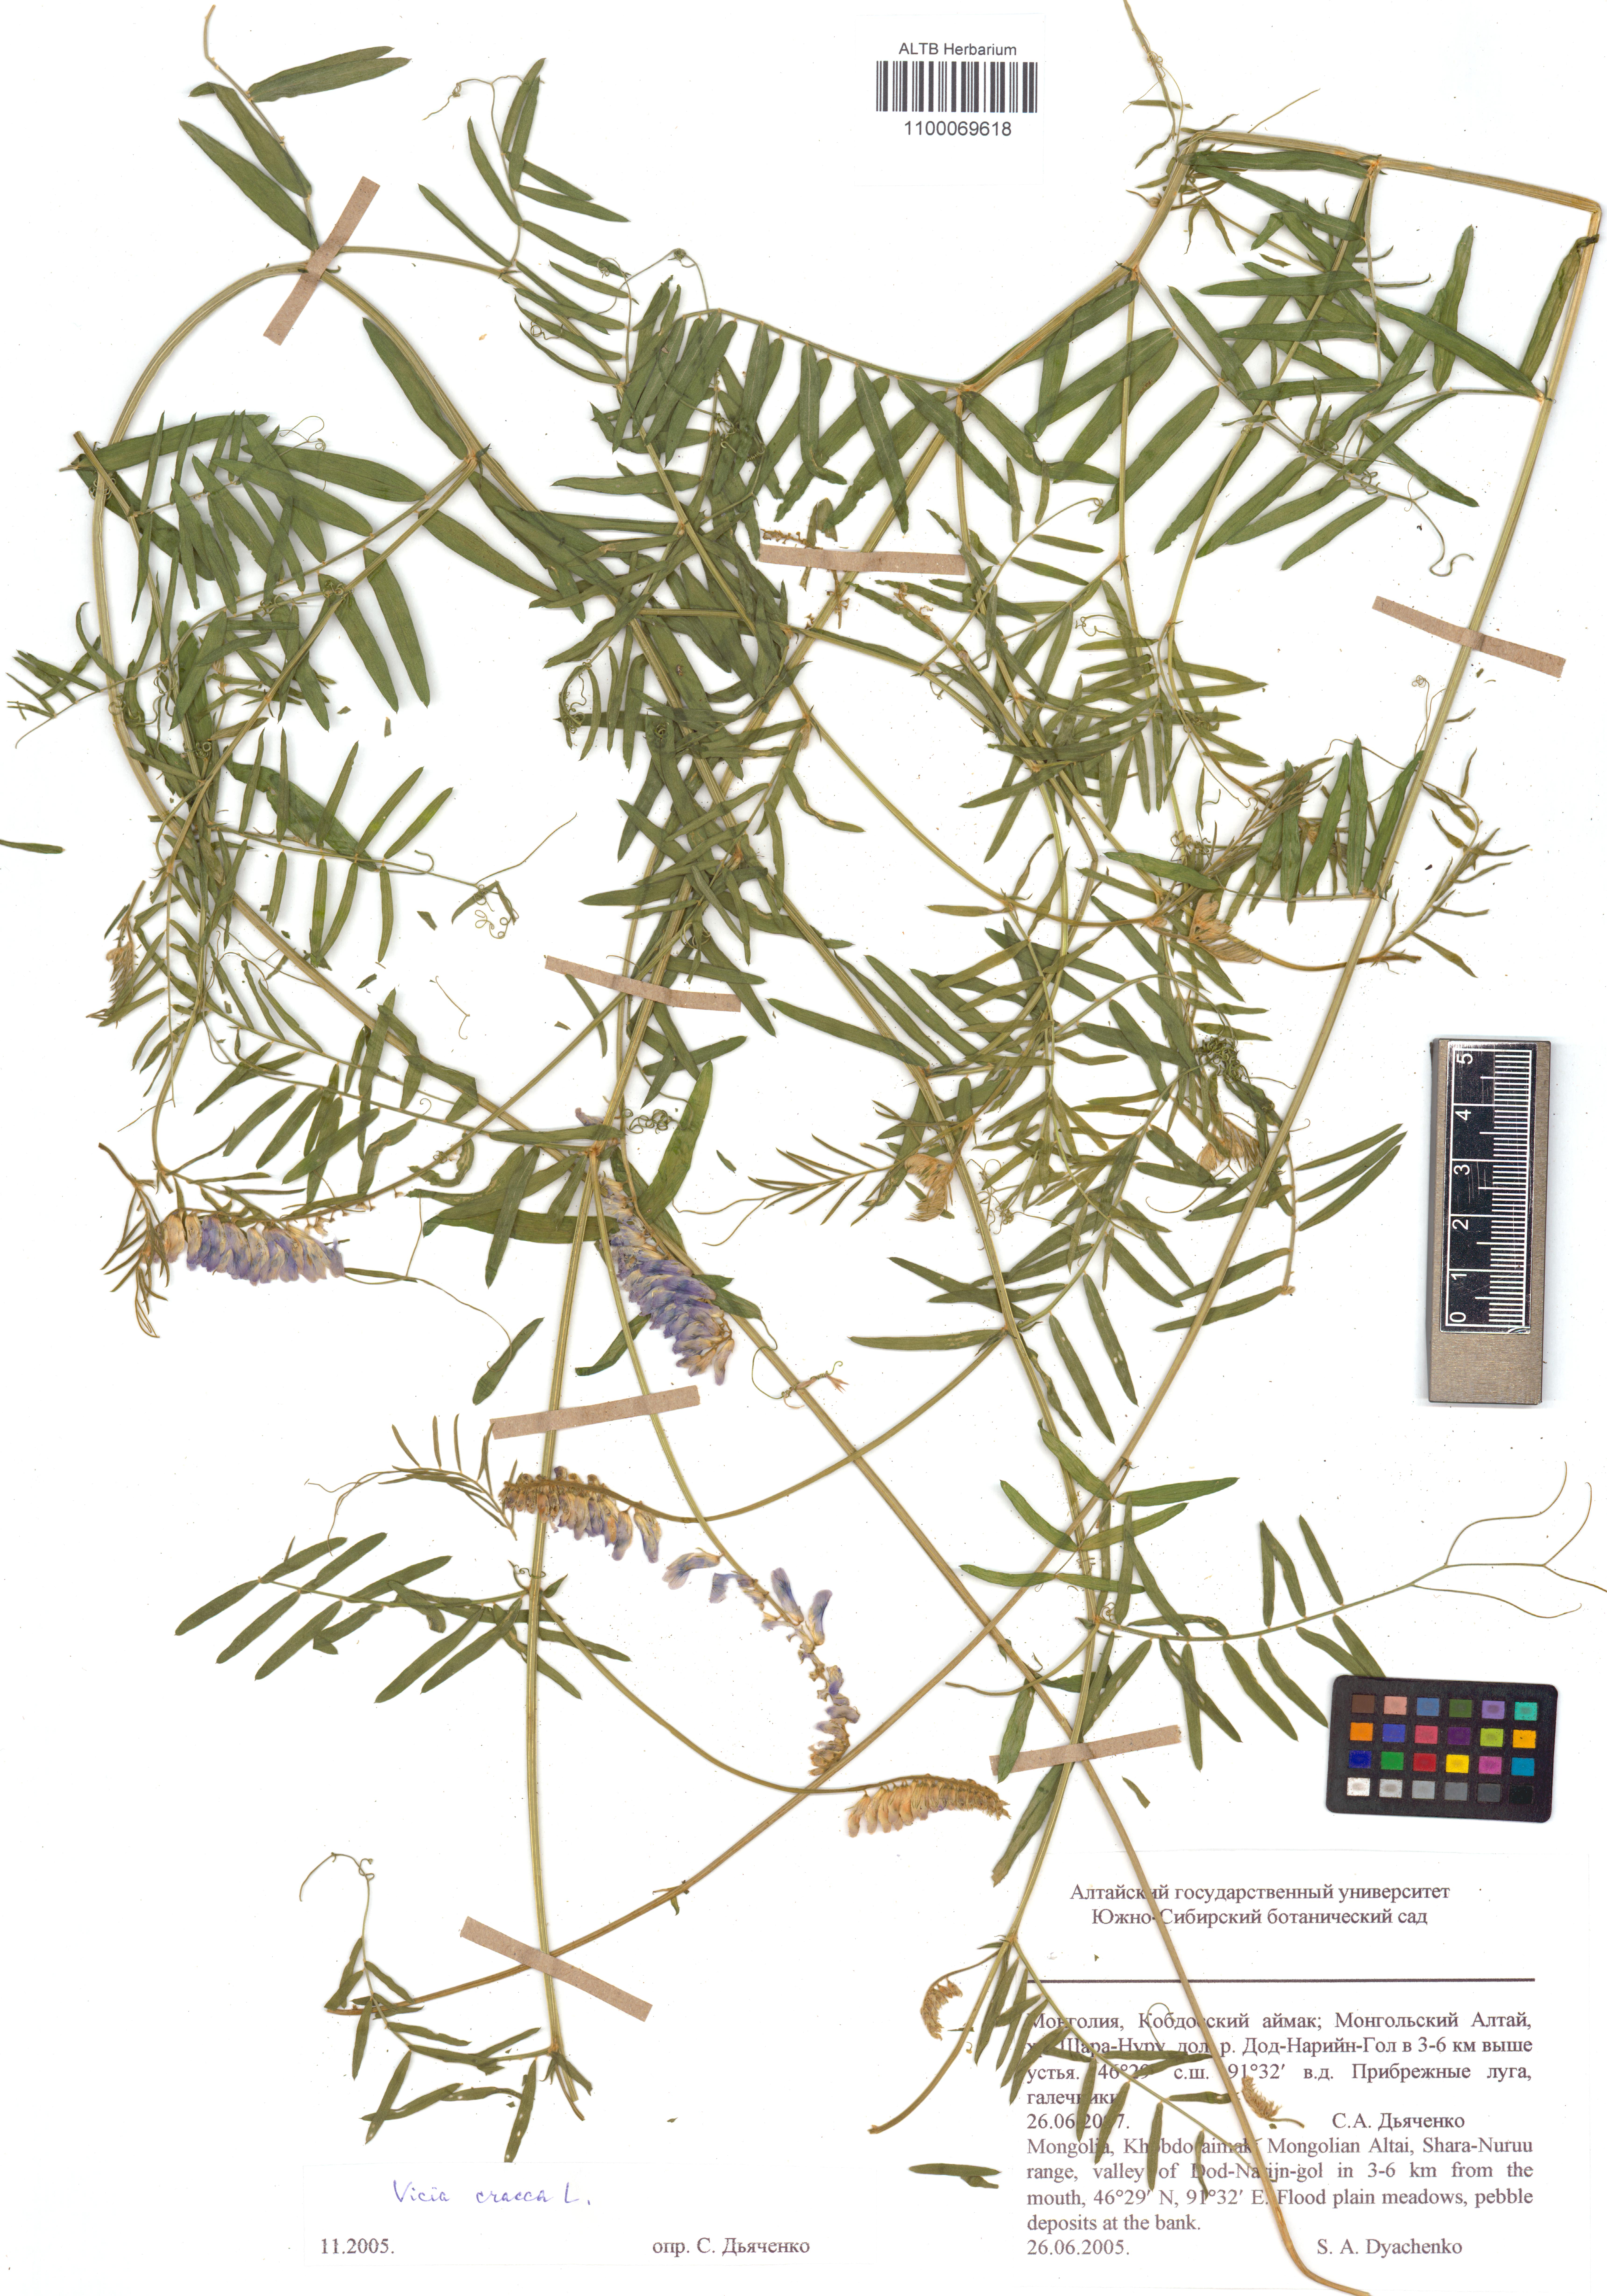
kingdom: Plantae
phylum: Tracheophyta
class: Magnoliopsida
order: Fabales
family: Fabaceae
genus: Vicia
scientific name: Vicia cracca
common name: Bird vetch
